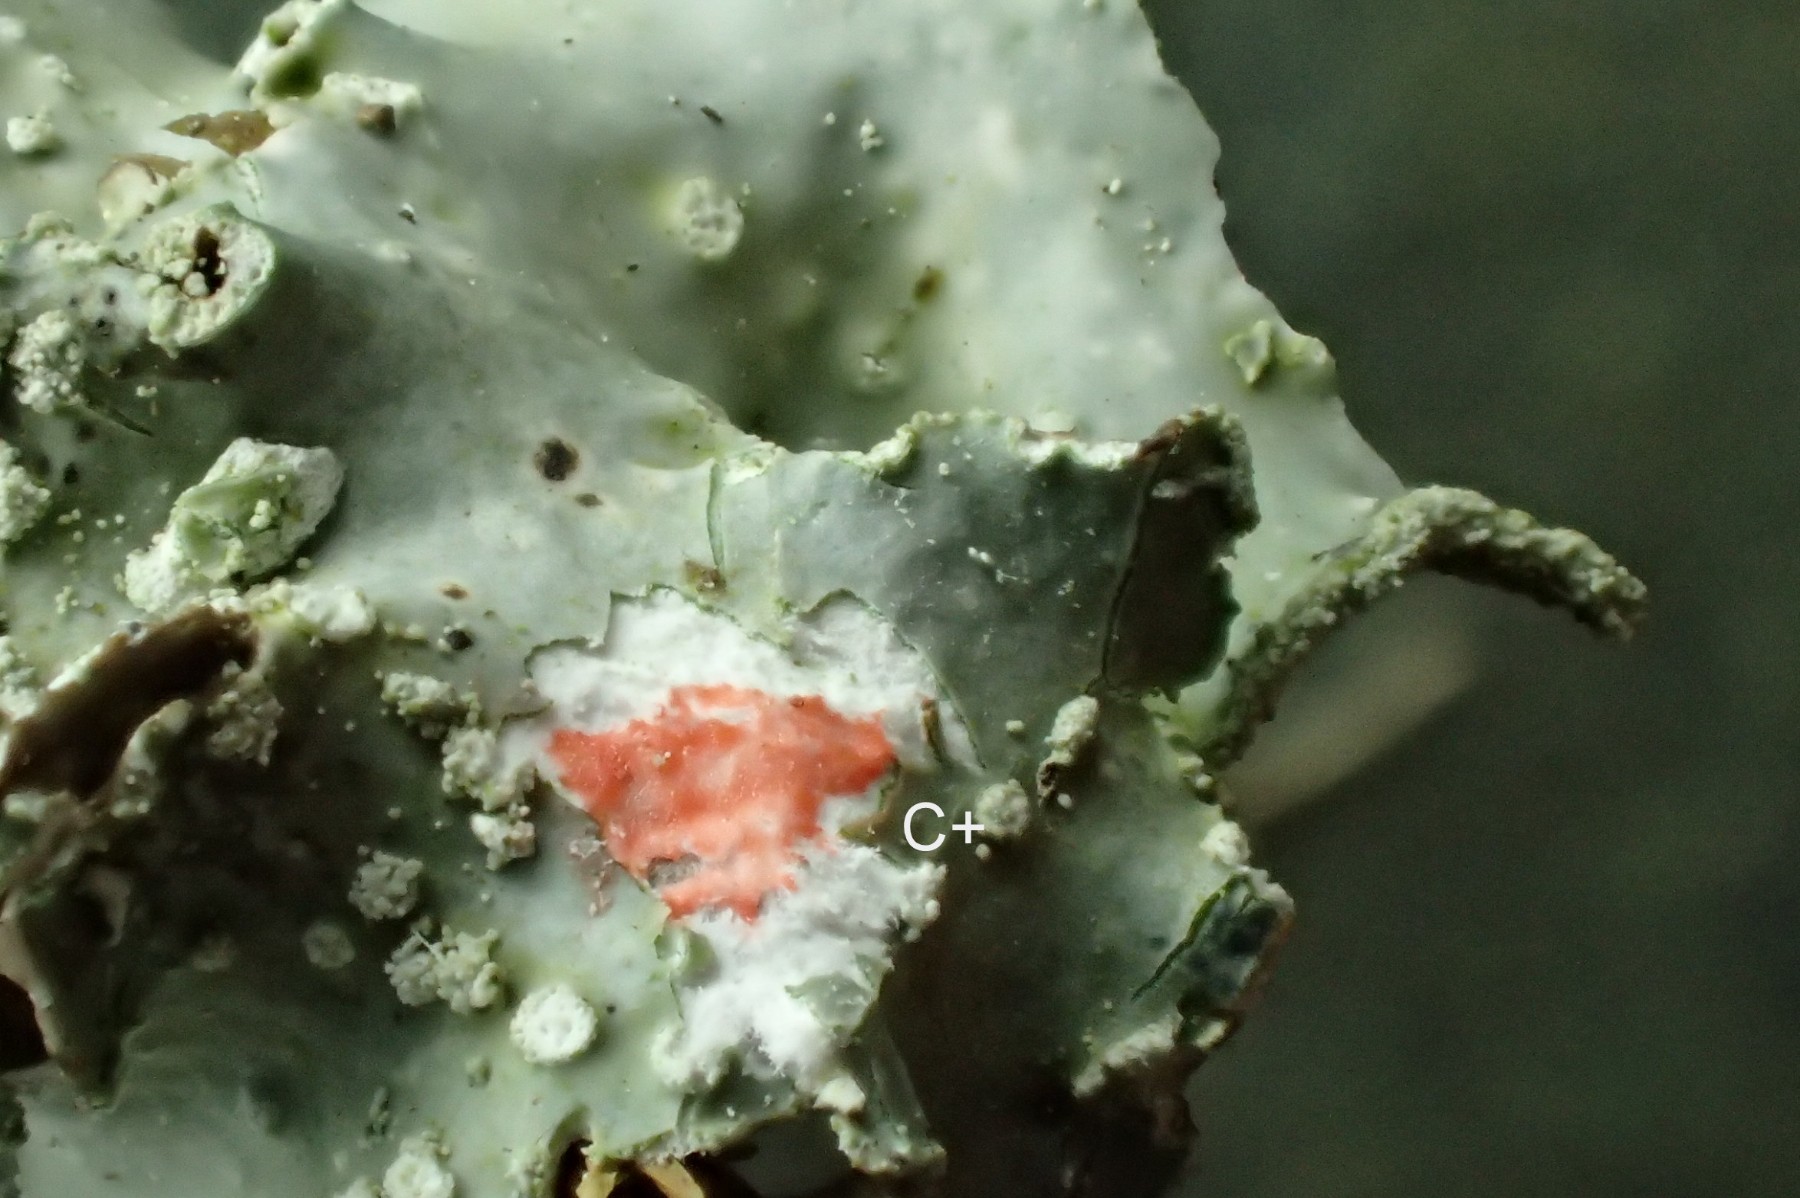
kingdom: Fungi
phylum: Ascomycota
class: Lecanoromycetes
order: Lecanorales
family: Parmeliaceae
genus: Punctelia
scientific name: Punctelia subrudecta
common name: punkt-skållav
